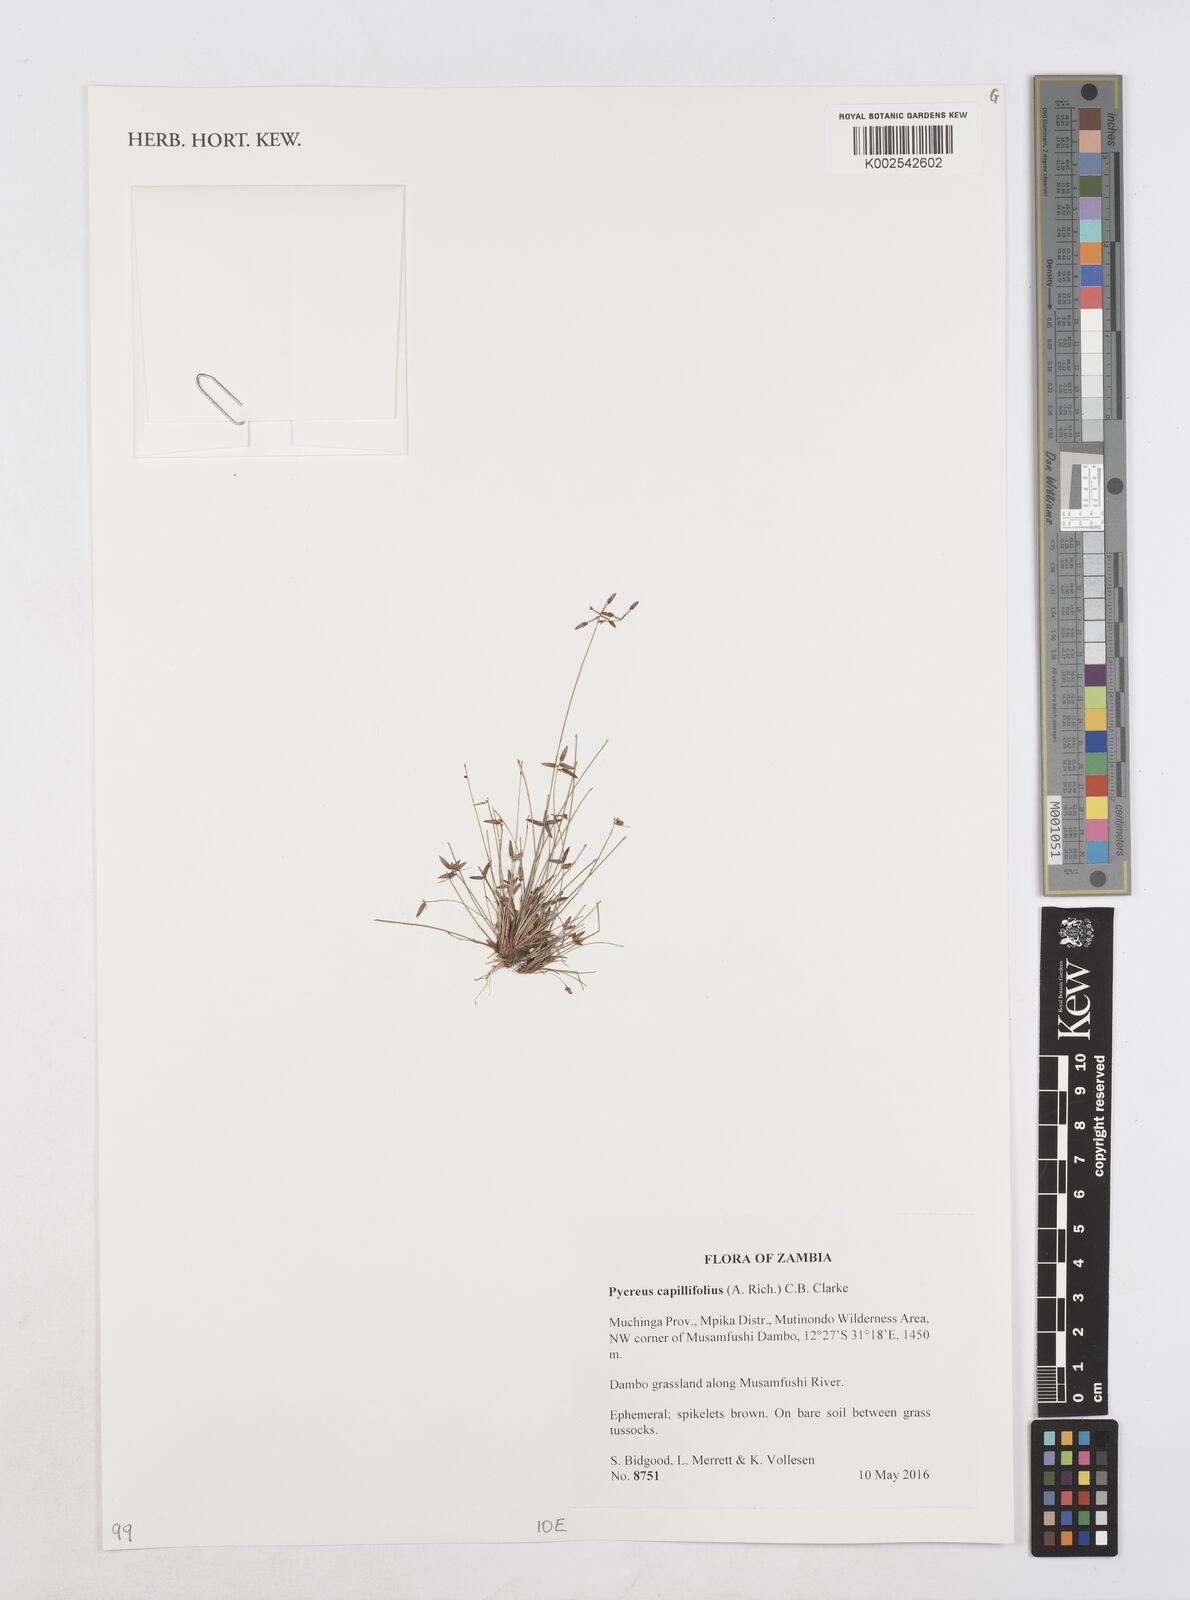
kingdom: Plantae
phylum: Tracheophyta
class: Liliopsida
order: Poales
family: Cyperaceae
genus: Cyperus
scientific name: Cyperus capillifolius
